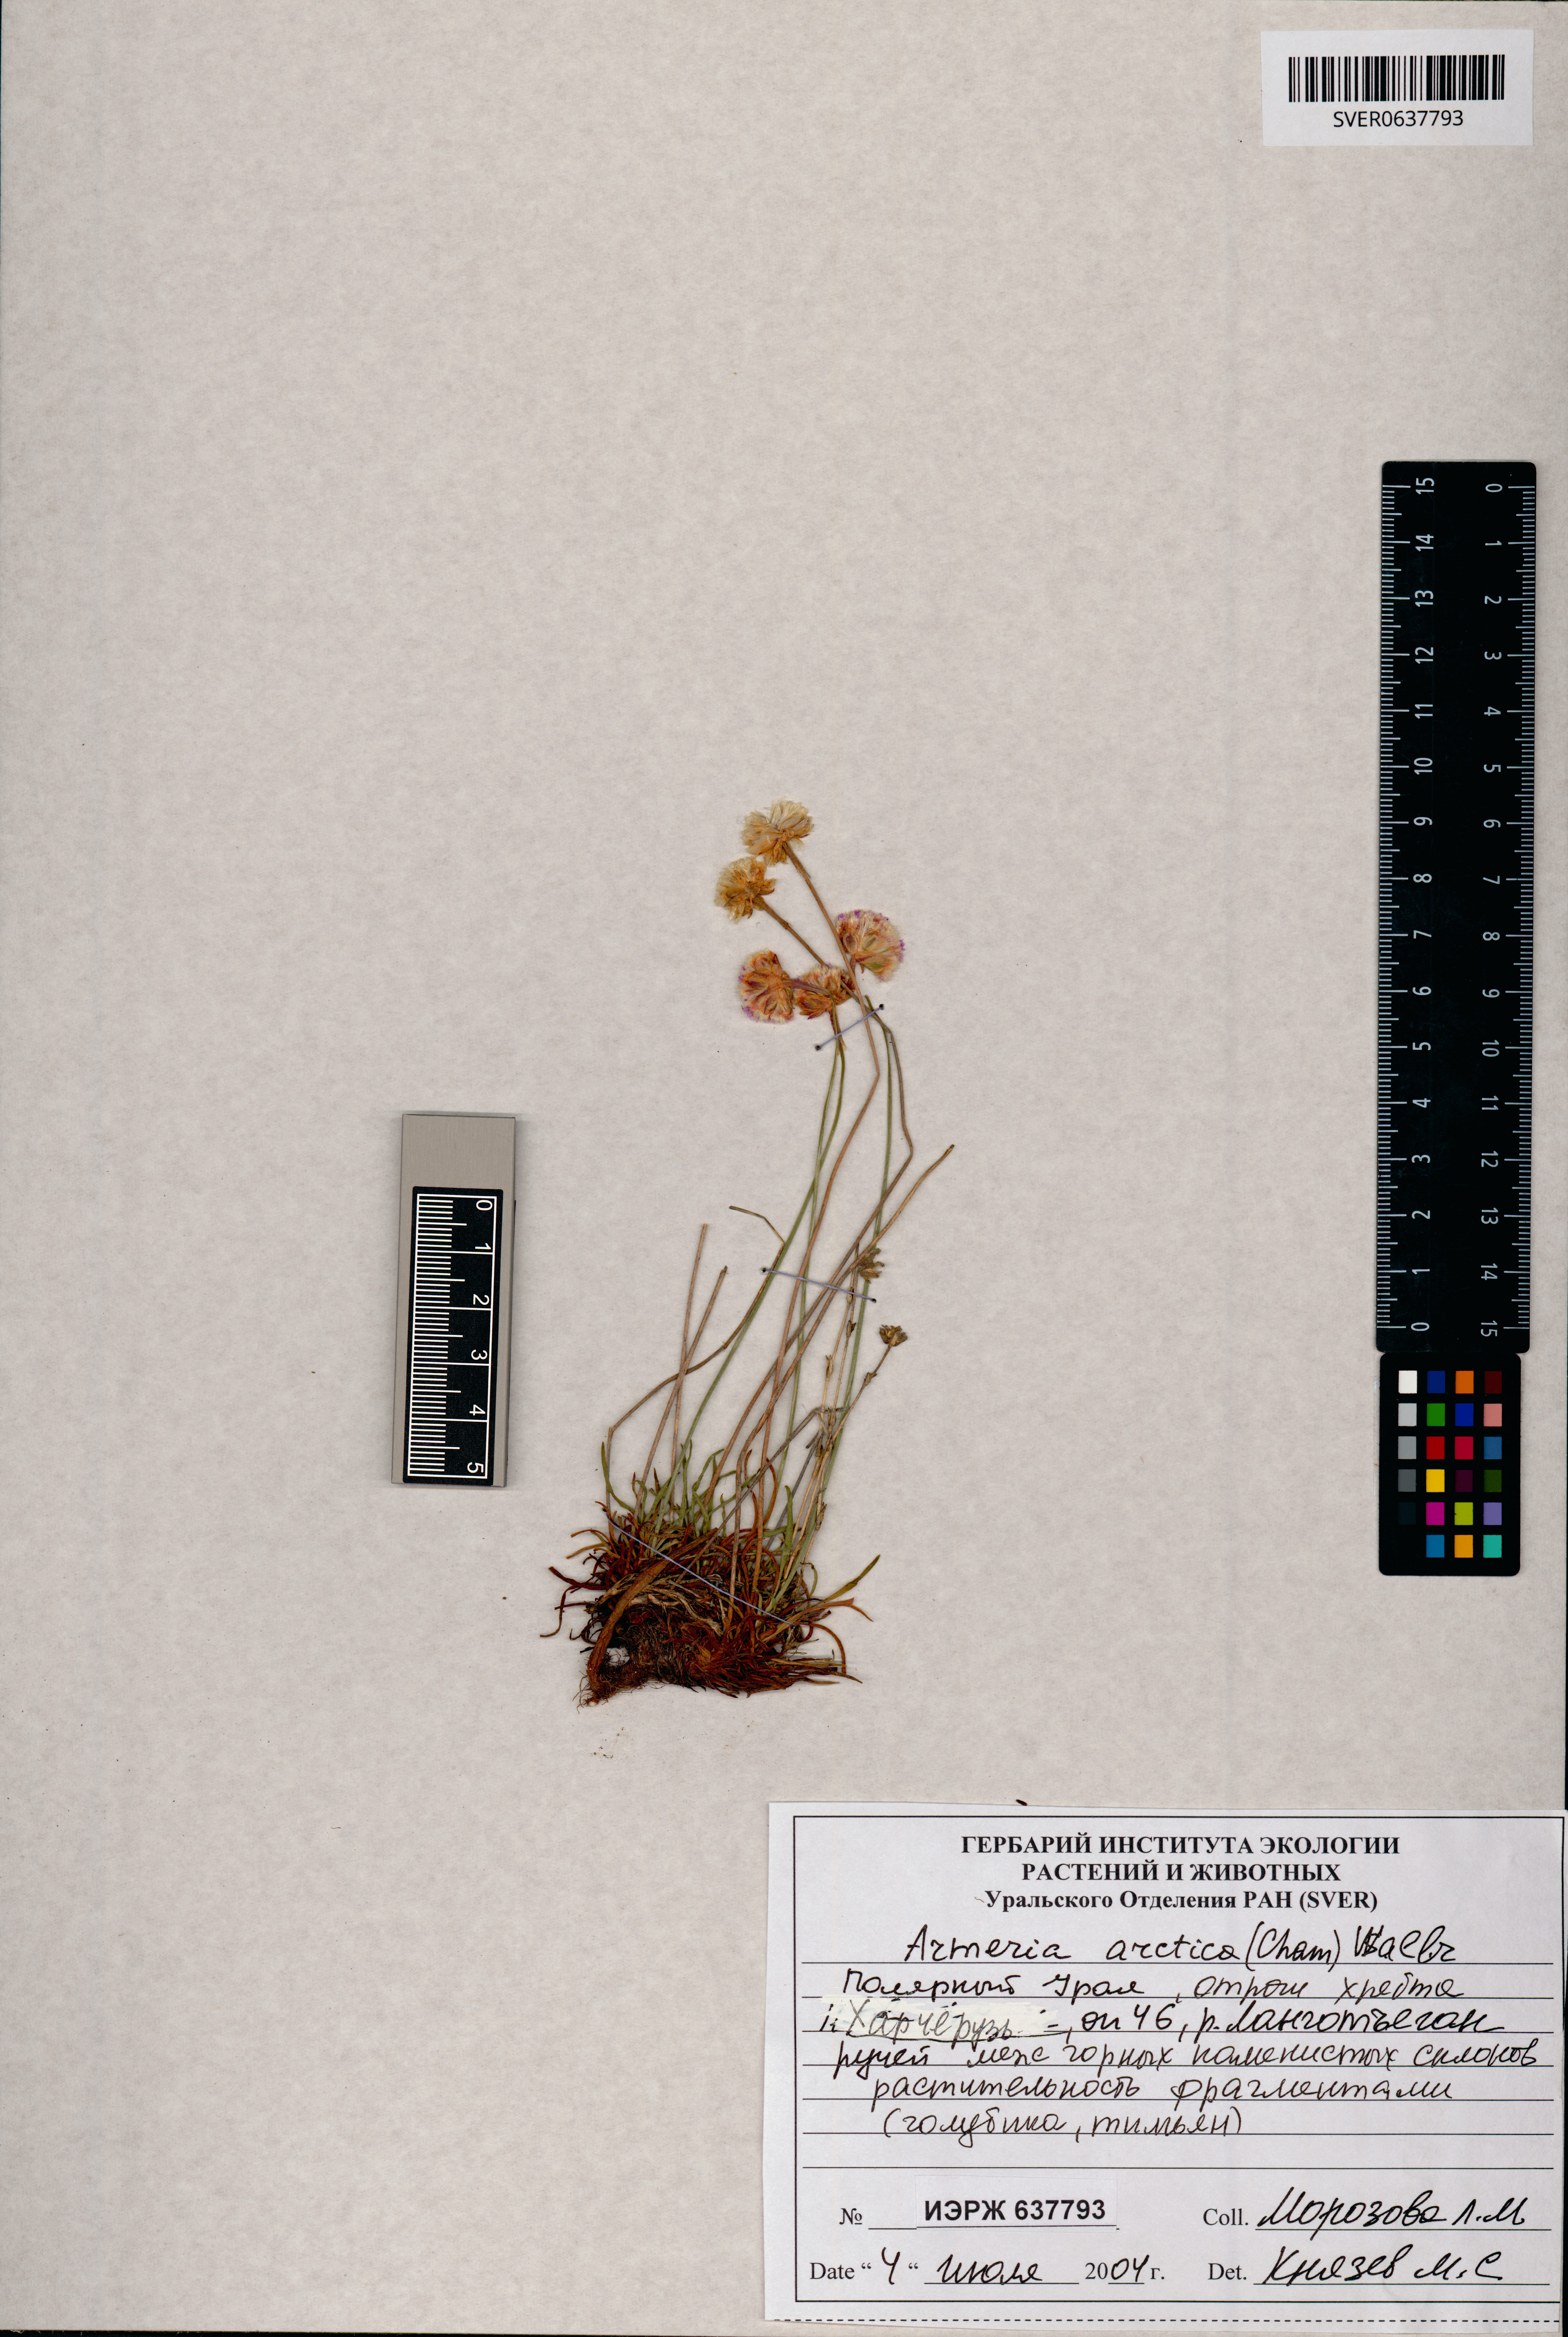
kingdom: Plantae
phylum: Tracheophyta
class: Magnoliopsida
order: Caryophyllales
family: Plumbaginaceae
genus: Armeria
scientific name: Armeria maritima
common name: Thrift
